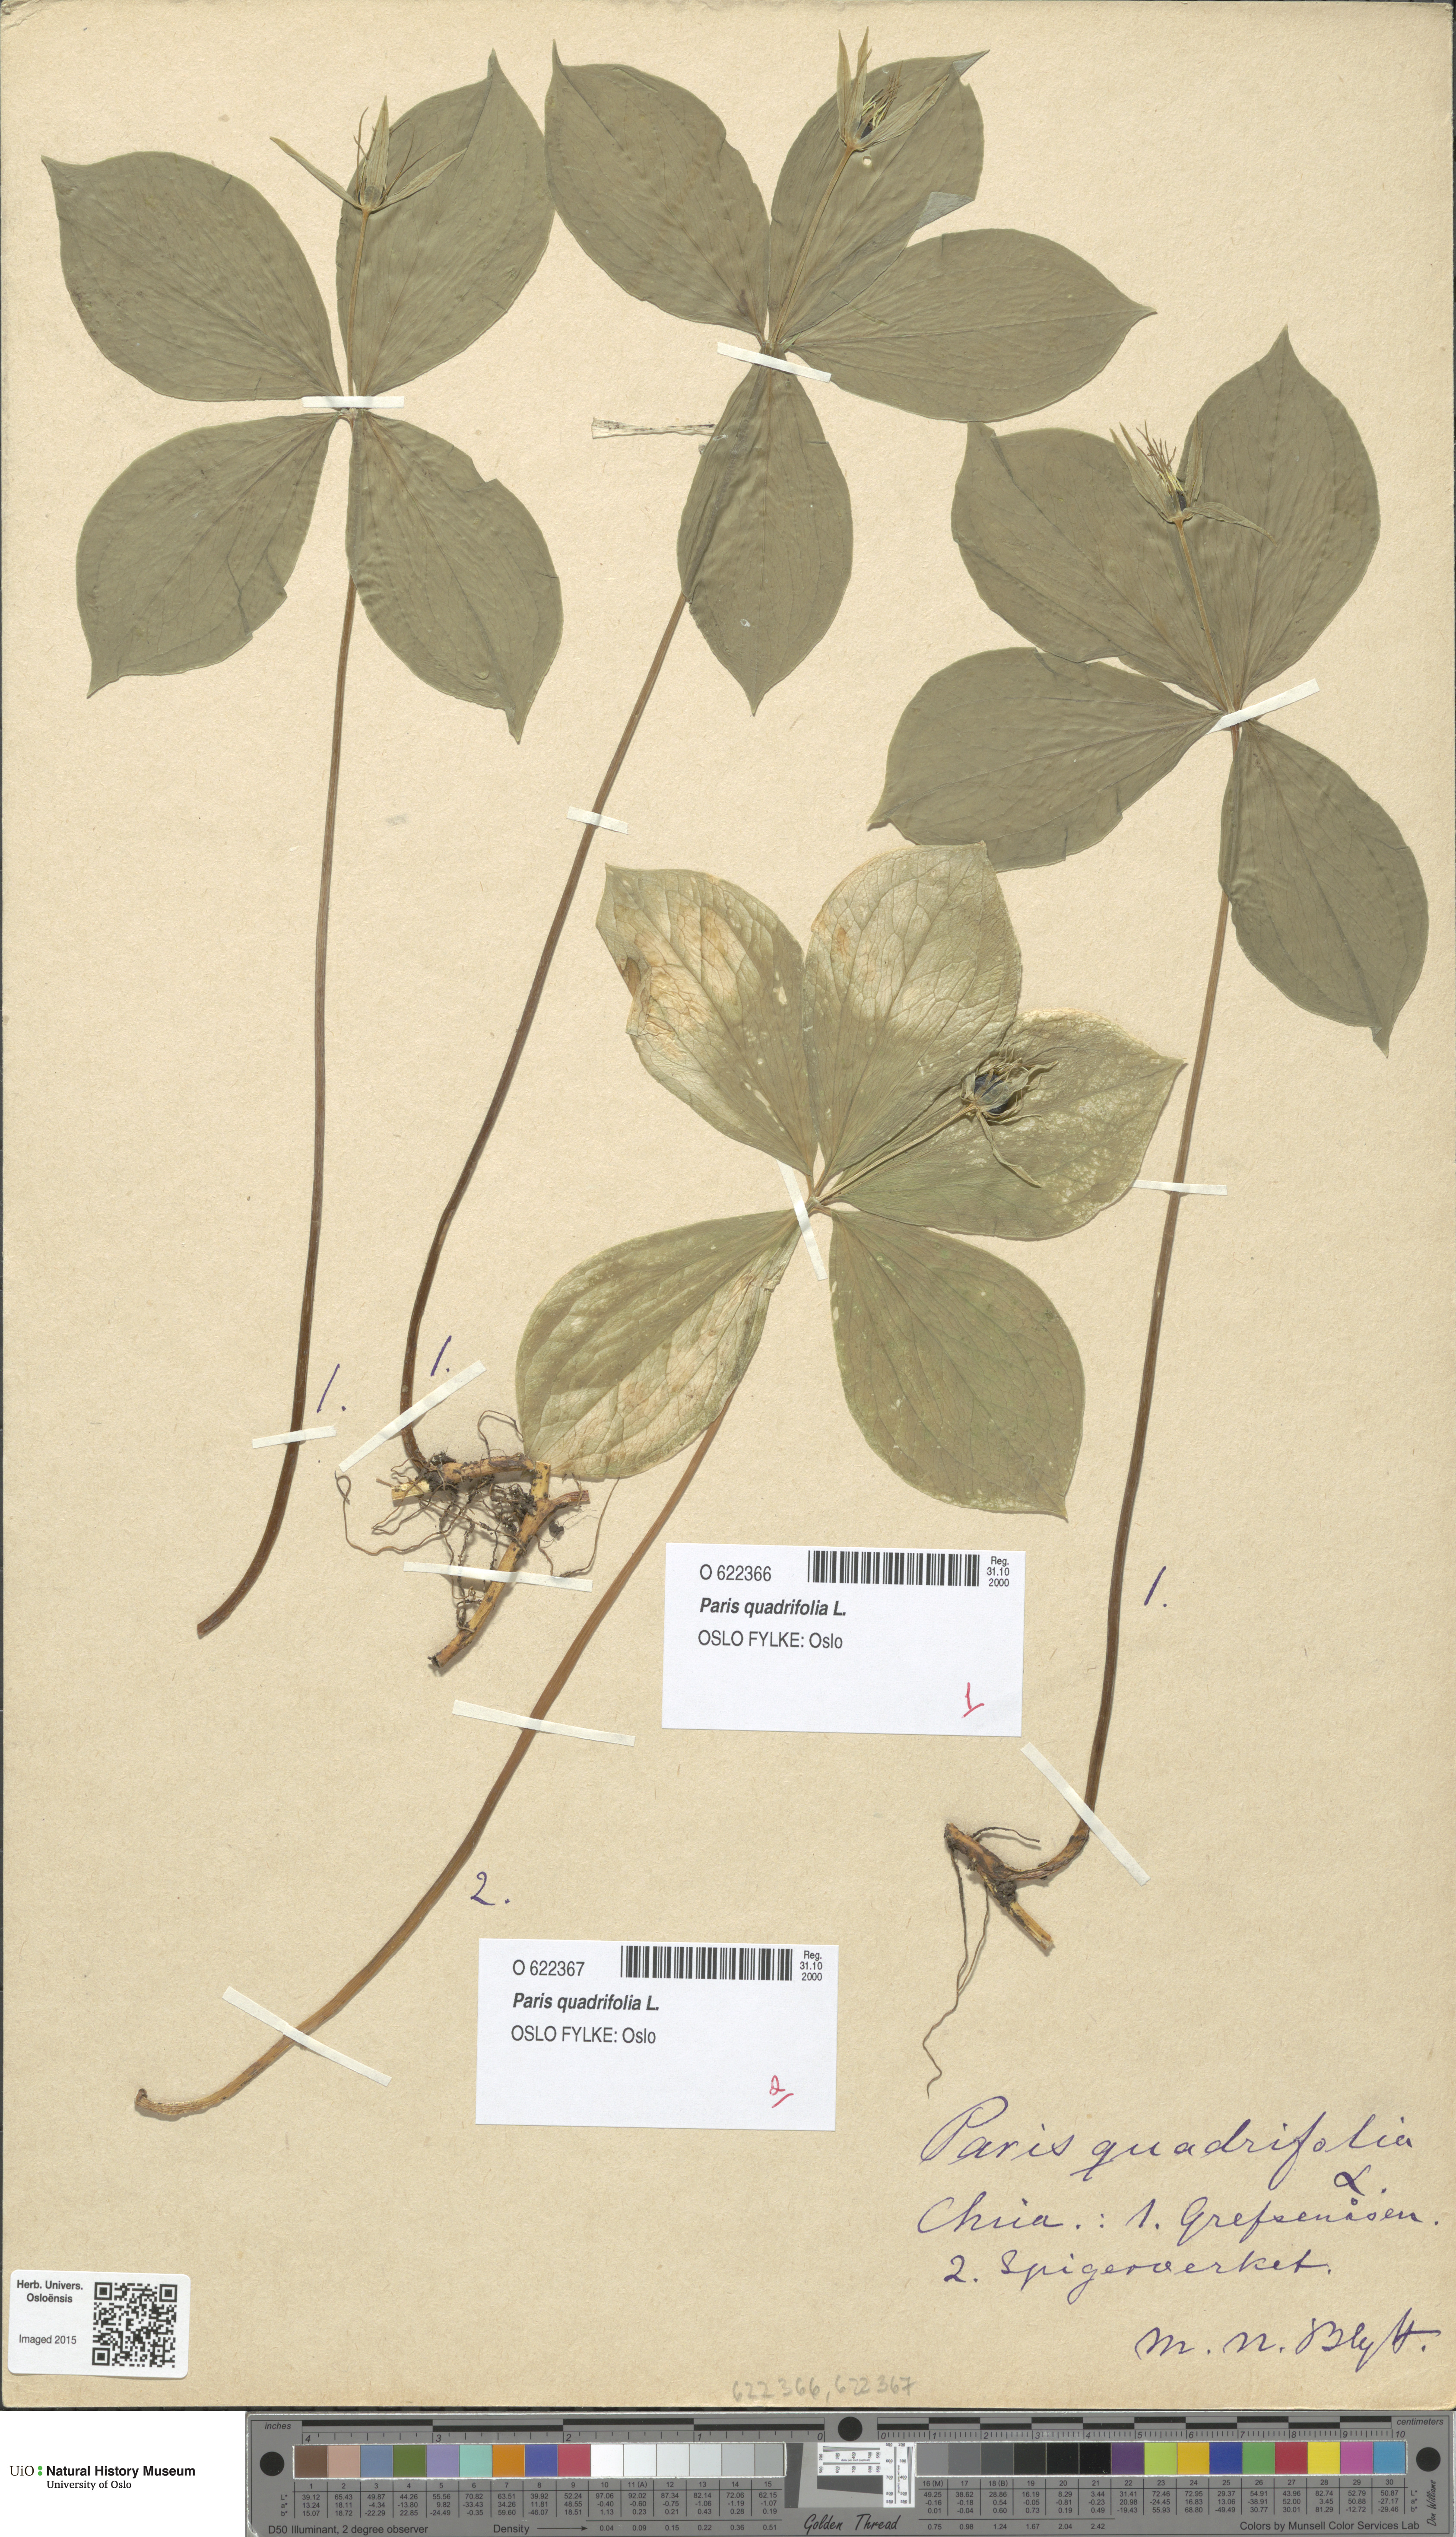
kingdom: Plantae
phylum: Tracheophyta
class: Liliopsida
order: Liliales
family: Melanthiaceae
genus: Paris
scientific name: Paris quadrifolia
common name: Herb-paris
